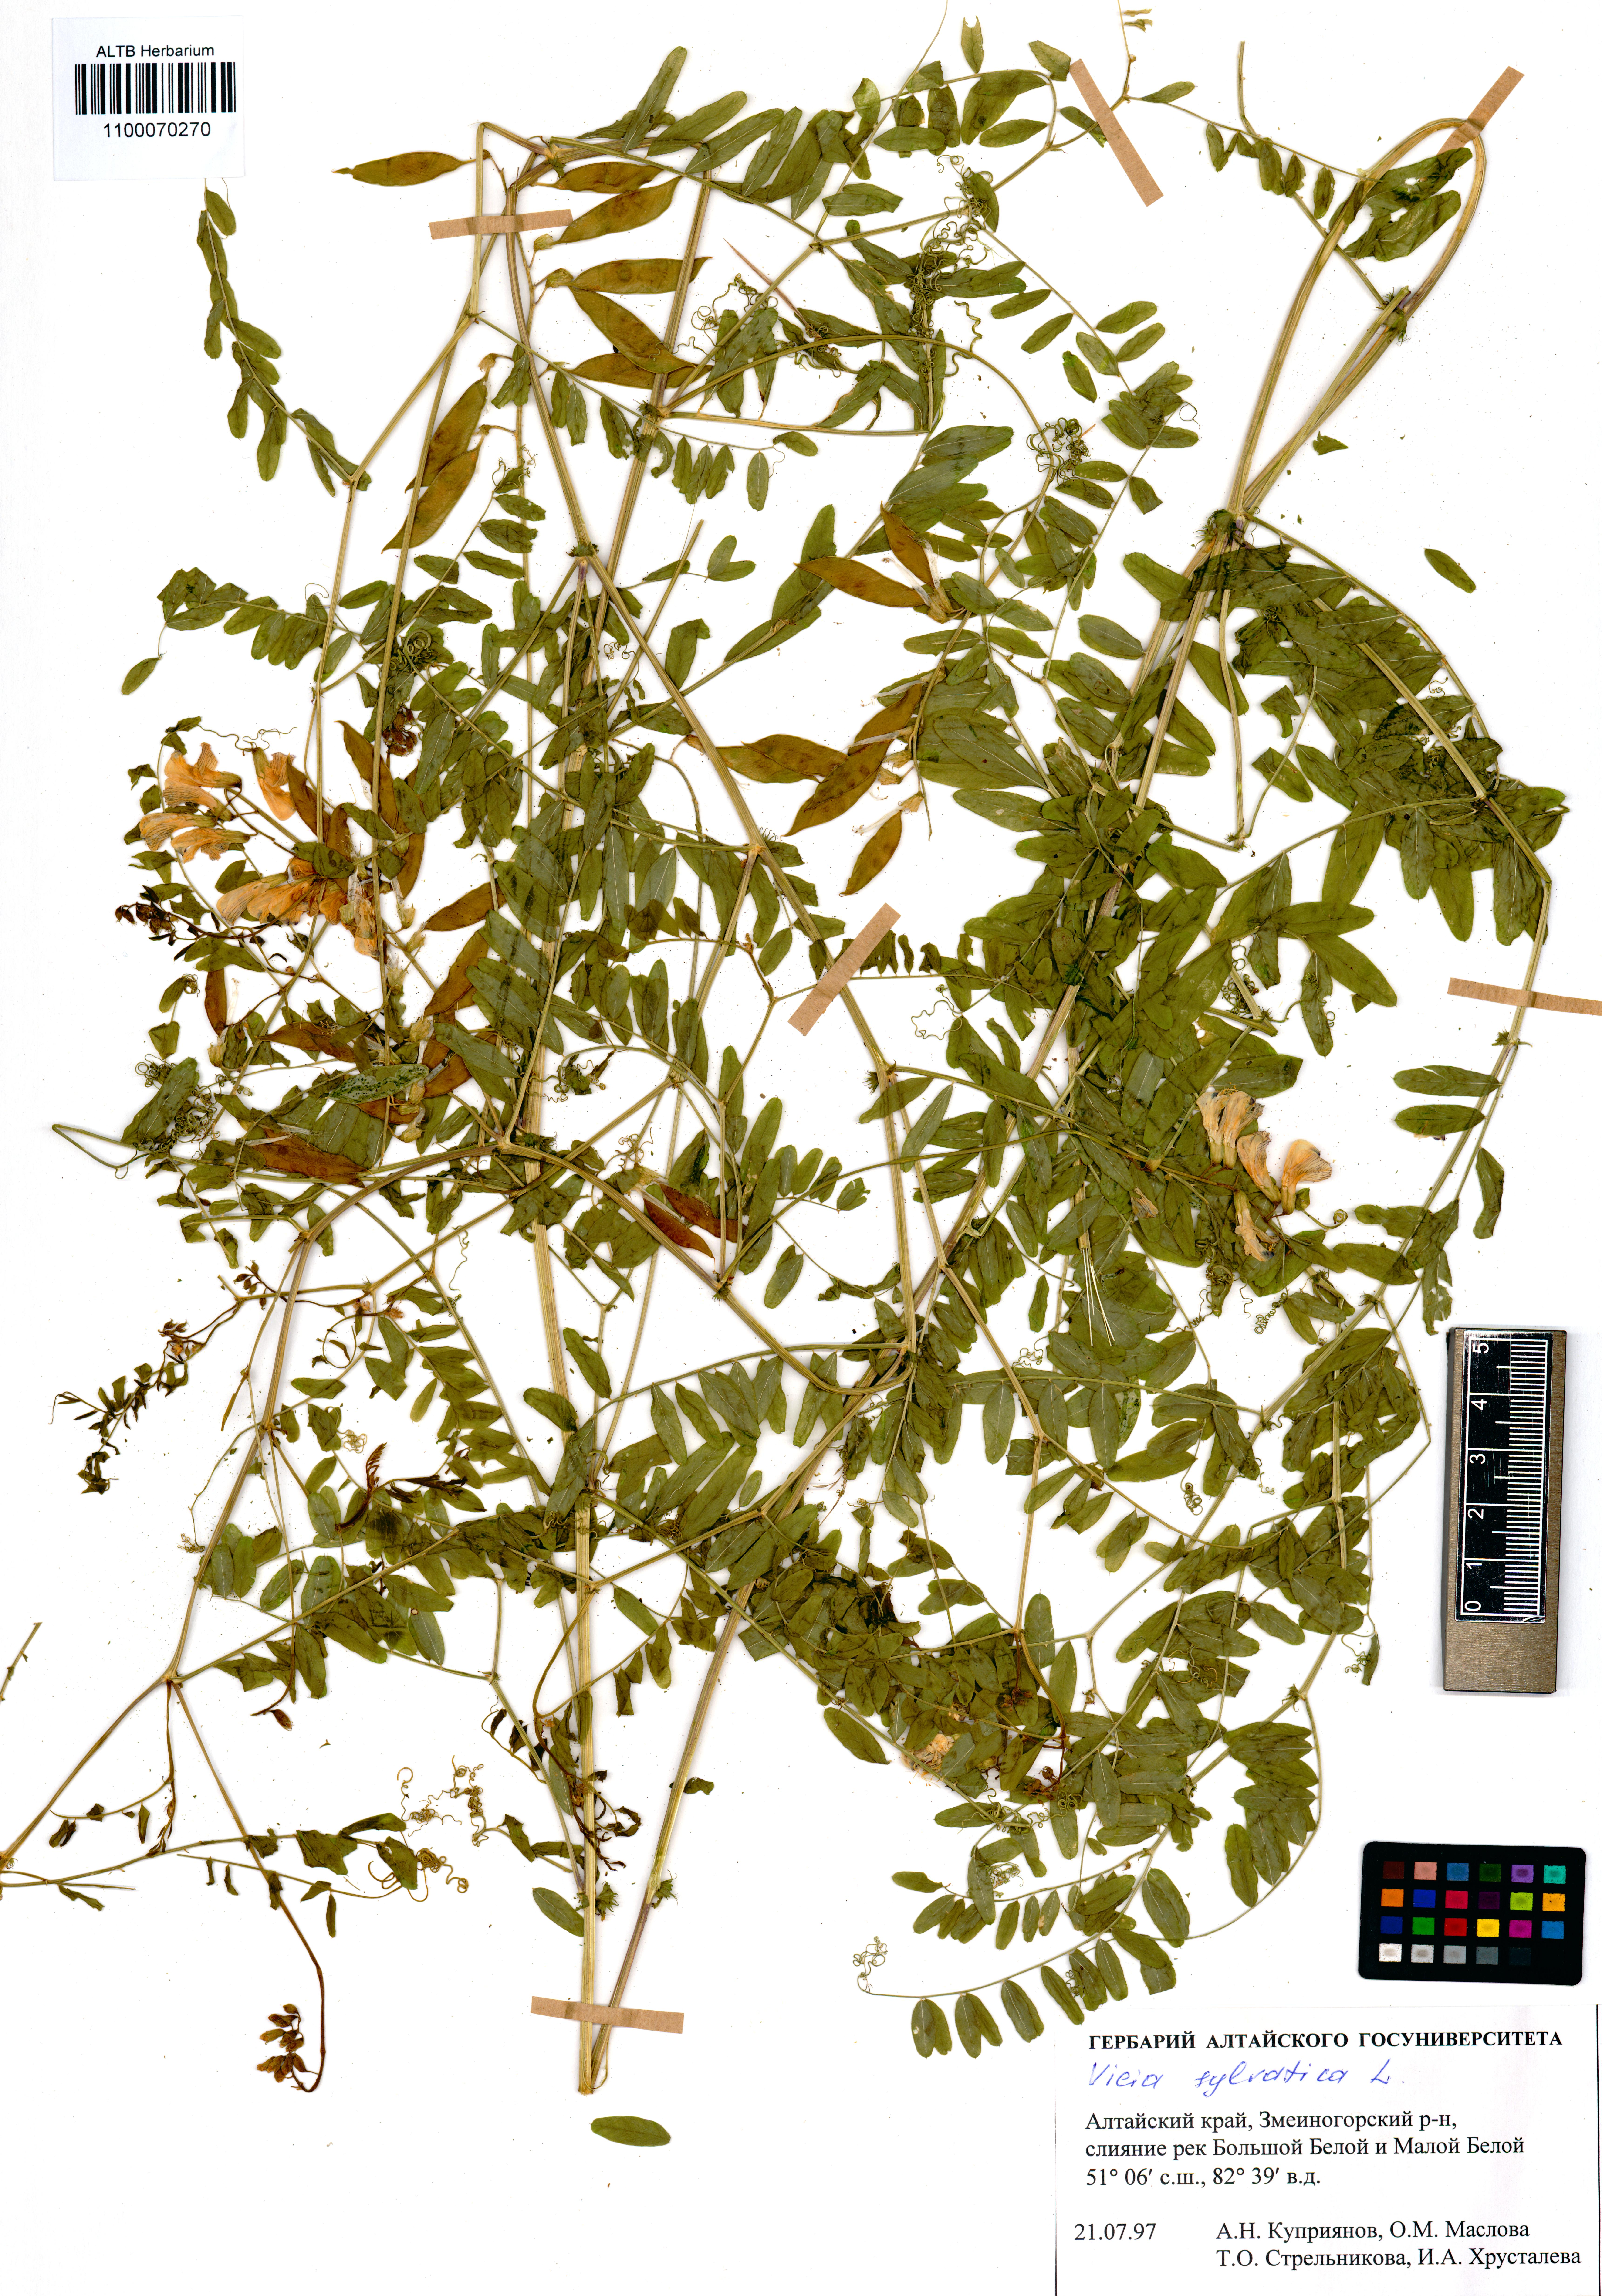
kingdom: Plantae
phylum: Tracheophyta
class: Magnoliopsida
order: Fabales
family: Fabaceae
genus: Vicia
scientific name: Vicia bakeri
